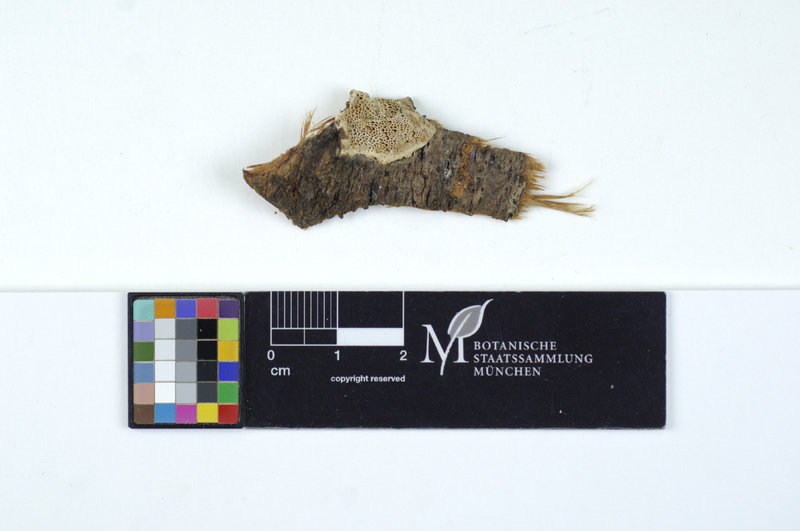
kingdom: Fungi
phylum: Basidiomycota
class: Agaricomycetes
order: Polyporales
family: Fomitopsidaceae
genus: Antrodia
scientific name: Antrodia ramentacea
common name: Honeycomb crust
